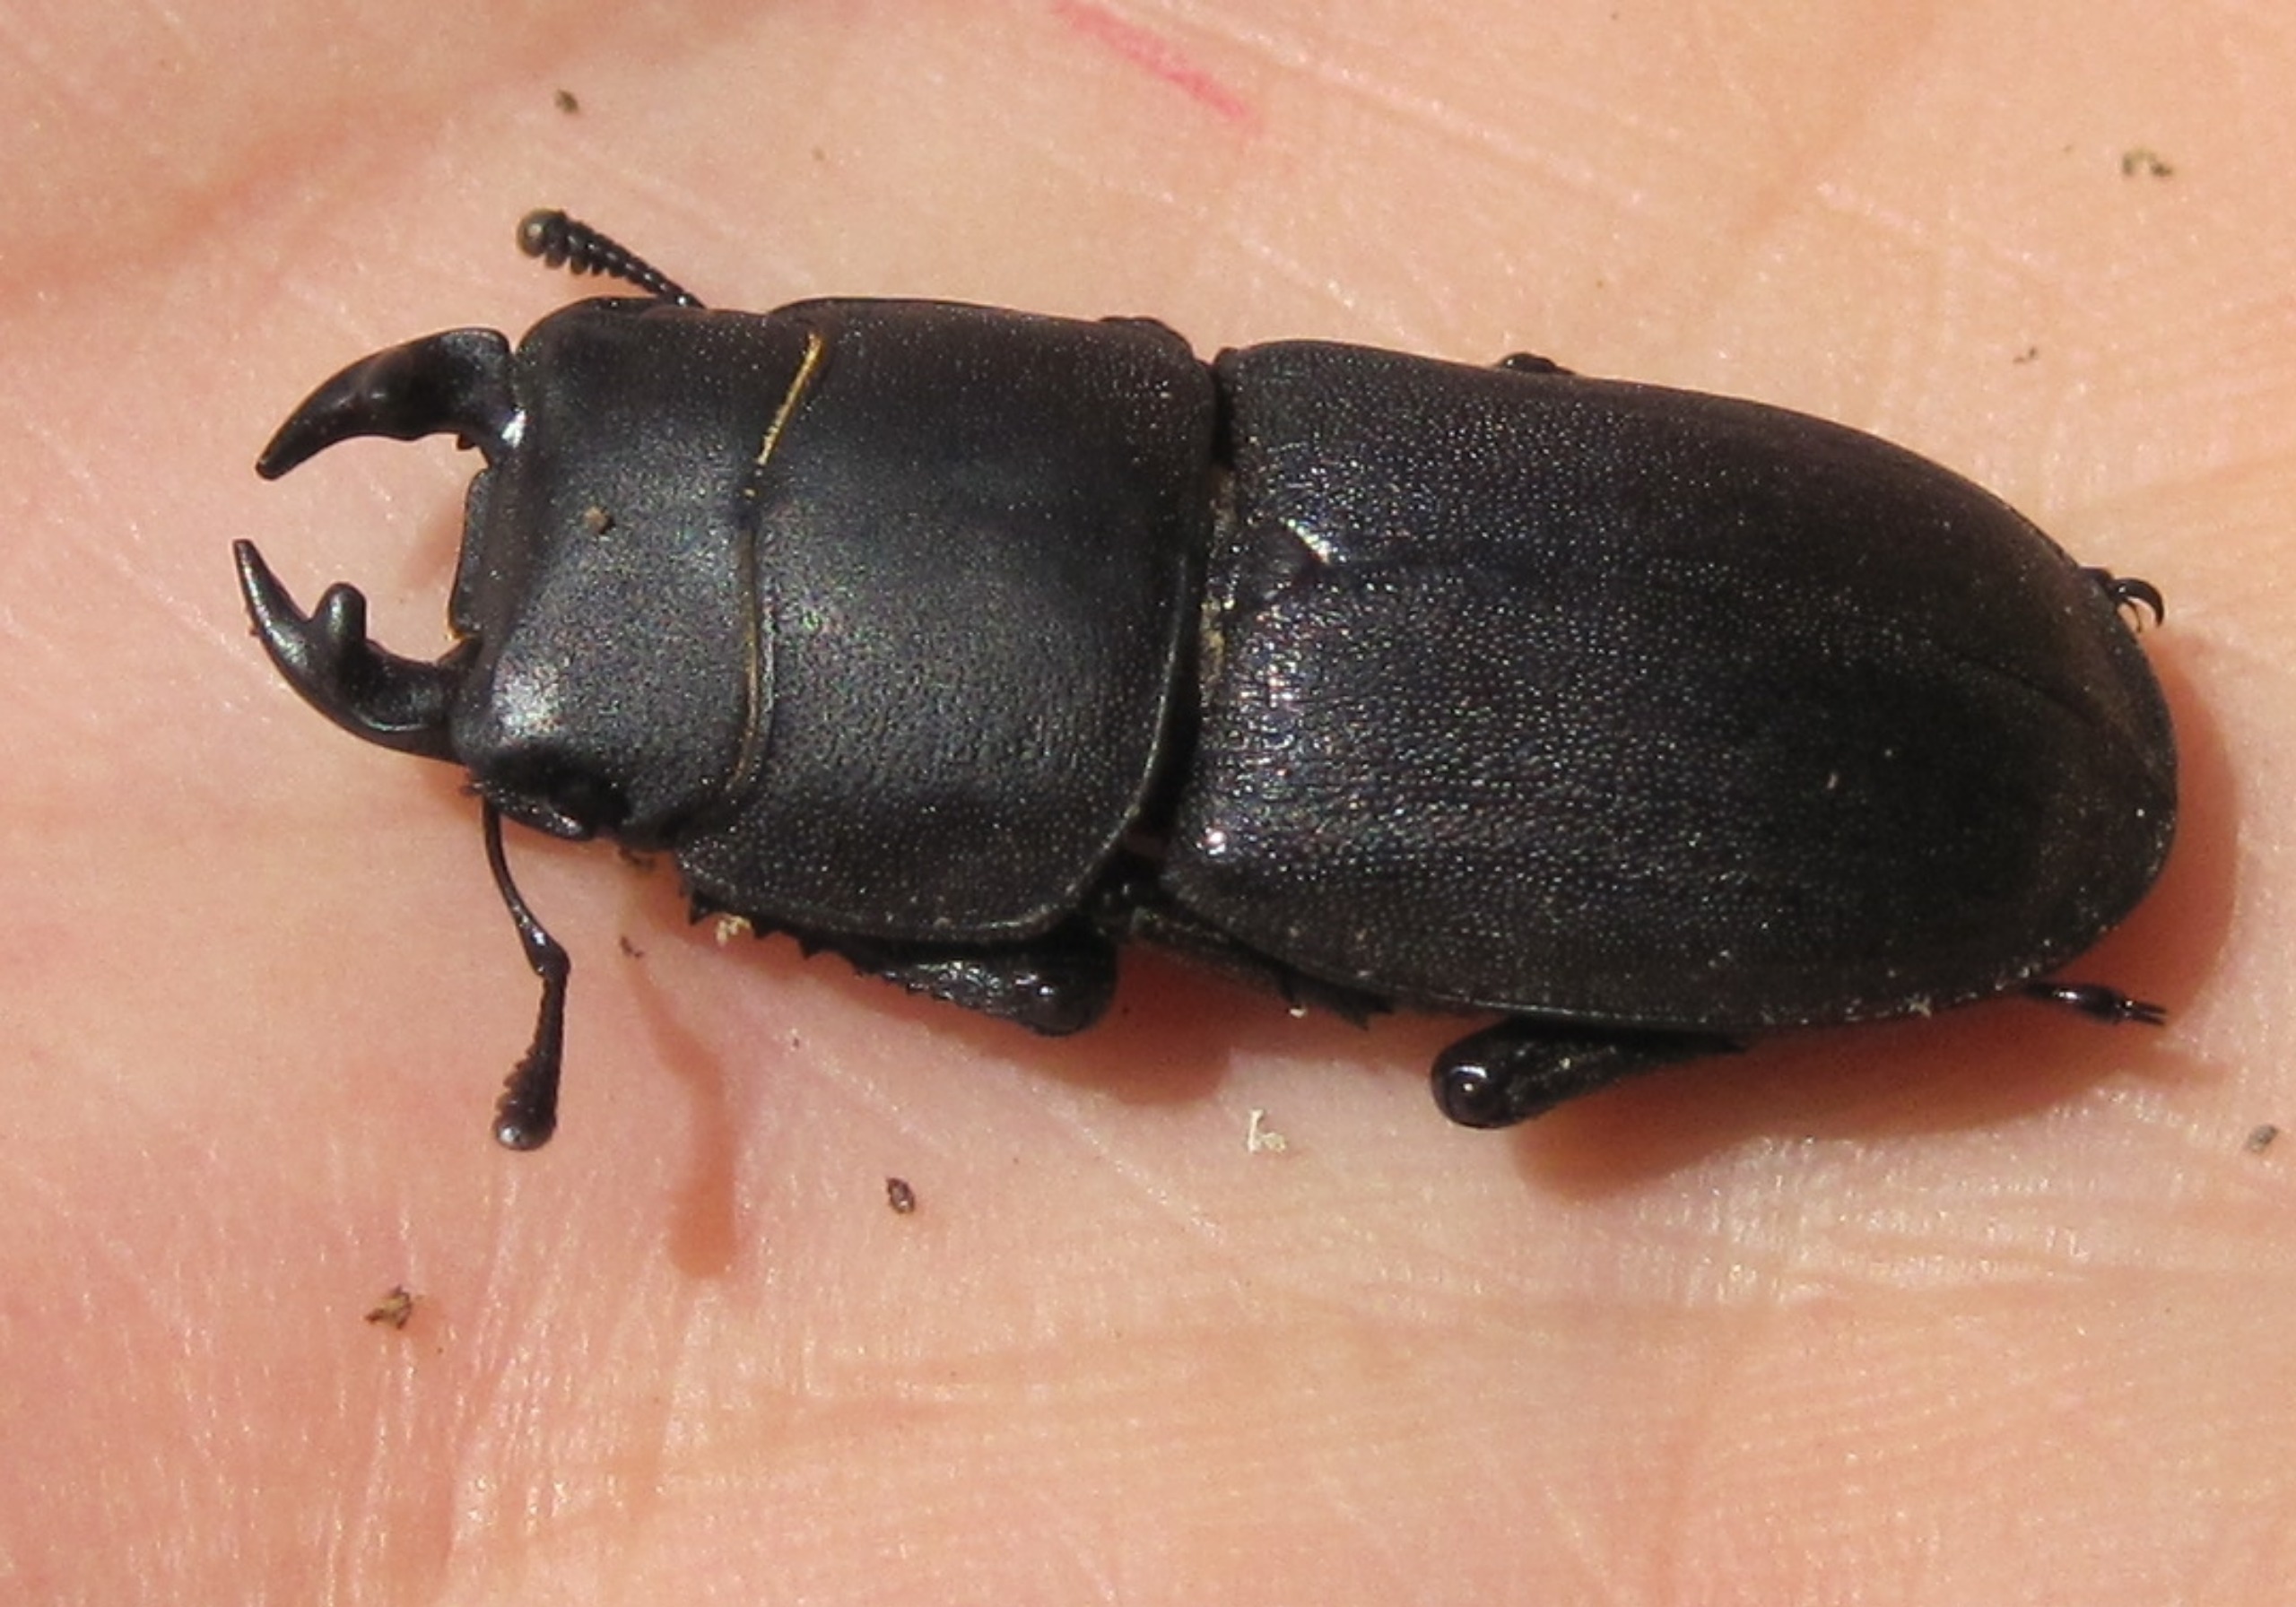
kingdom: Animalia
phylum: Arthropoda
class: Insecta
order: Coleoptera
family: Lucanidae
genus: Dorcus
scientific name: Dorcus parallelipipedus
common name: Bøghjort
